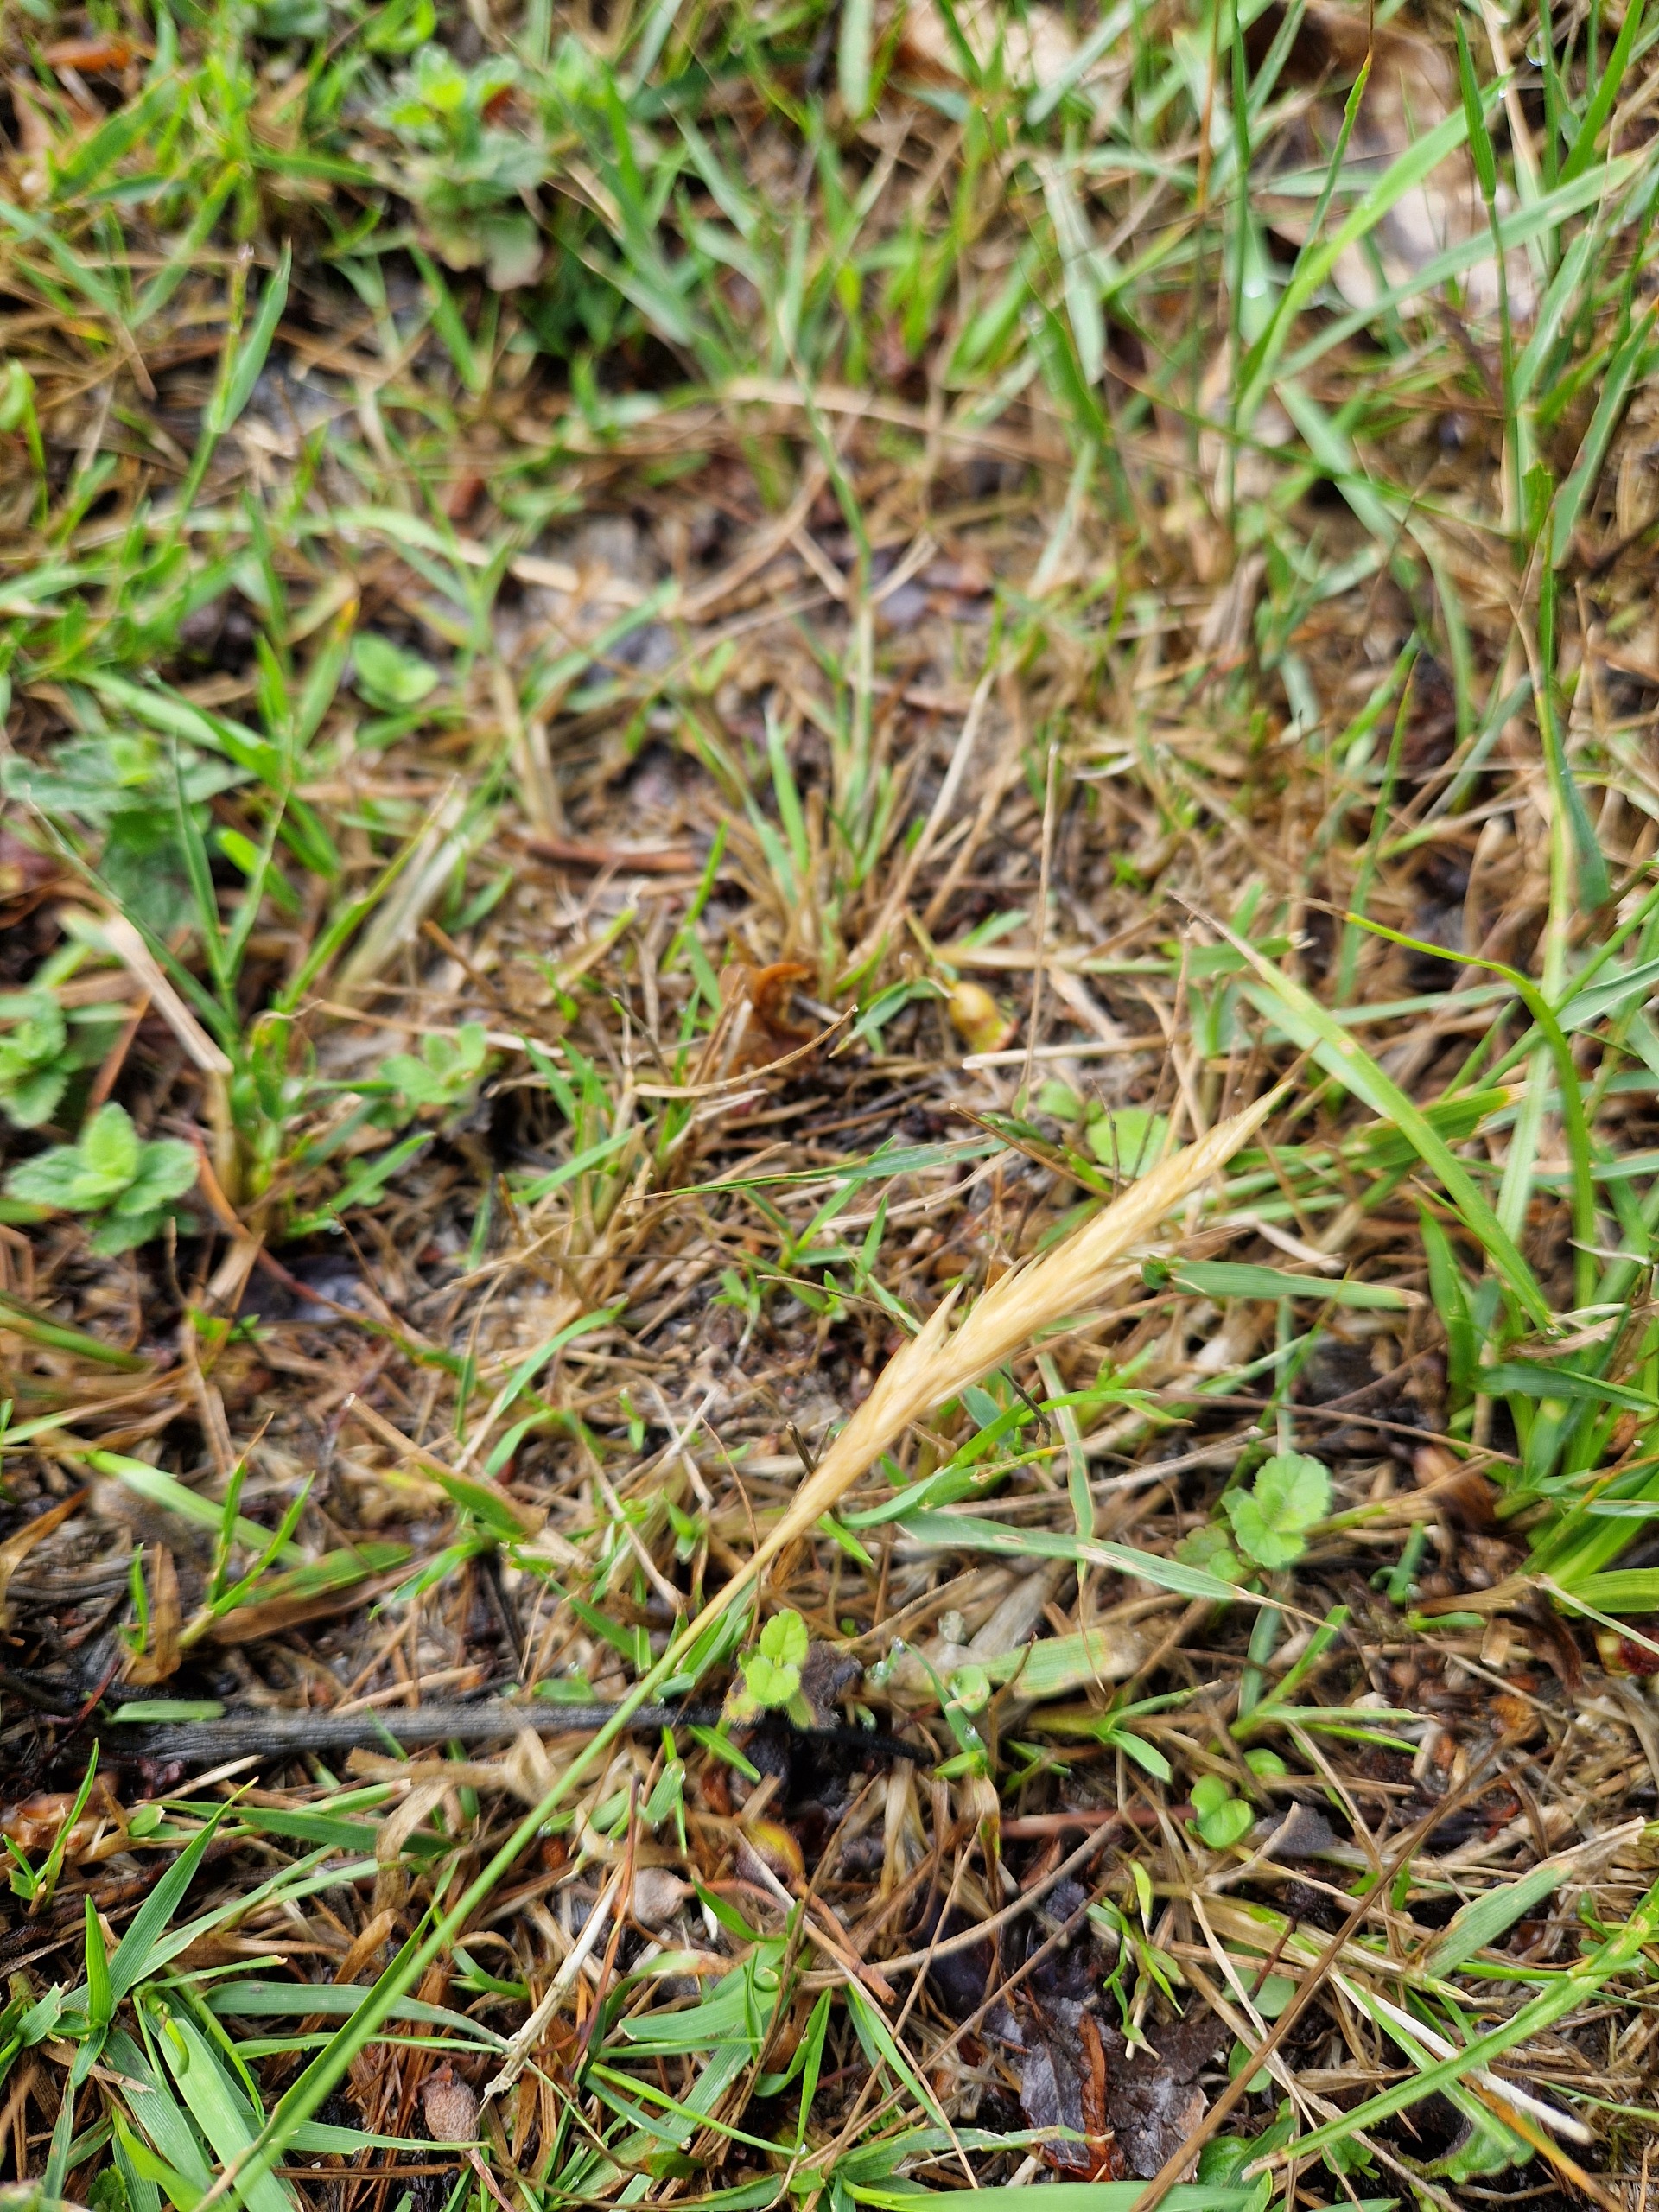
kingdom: Plantae
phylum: Tracheophyta
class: Liliopsida
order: Poales
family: Poaceae
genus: Anthoxanthum
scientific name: Anthoxanthum odoratum
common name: Vellugtende gulaks
